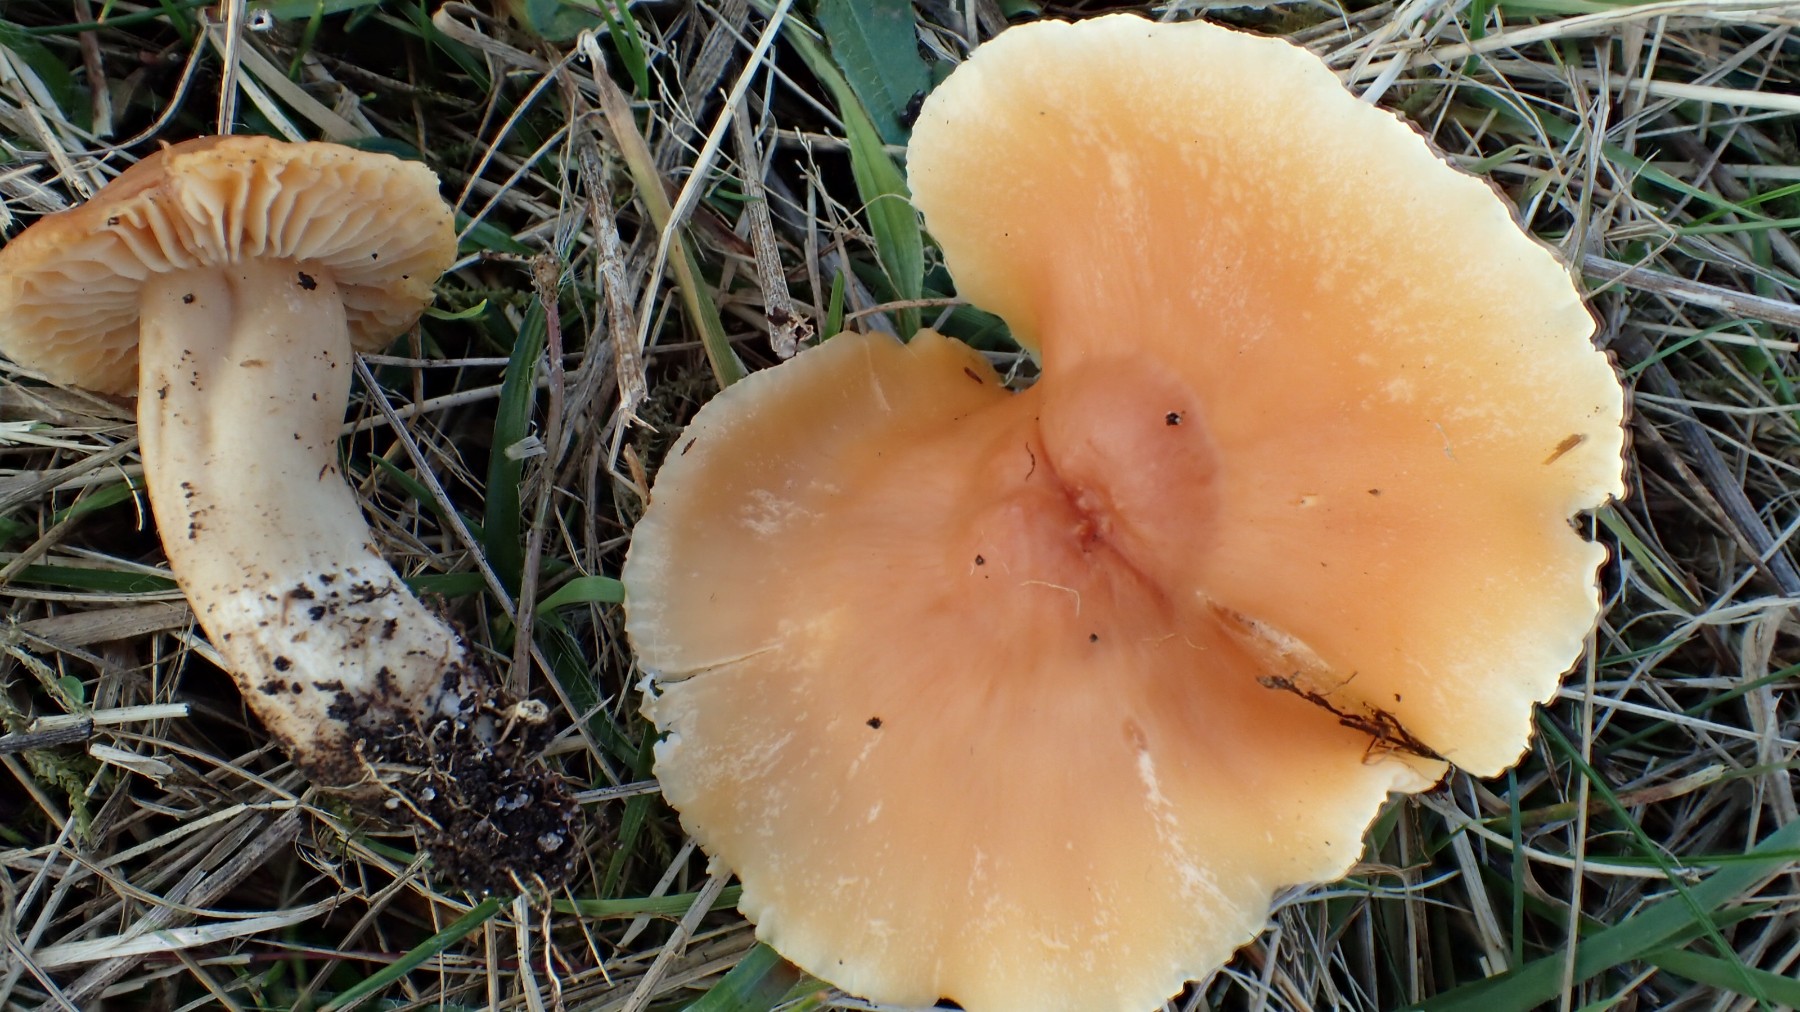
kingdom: Fungi
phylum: Basidiomycota
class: Agaricomycetes
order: Agaricales
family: Hygrophoraceae
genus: Cuphophyllus
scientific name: Cuphophyllus pratensis
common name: eng-vokshat
